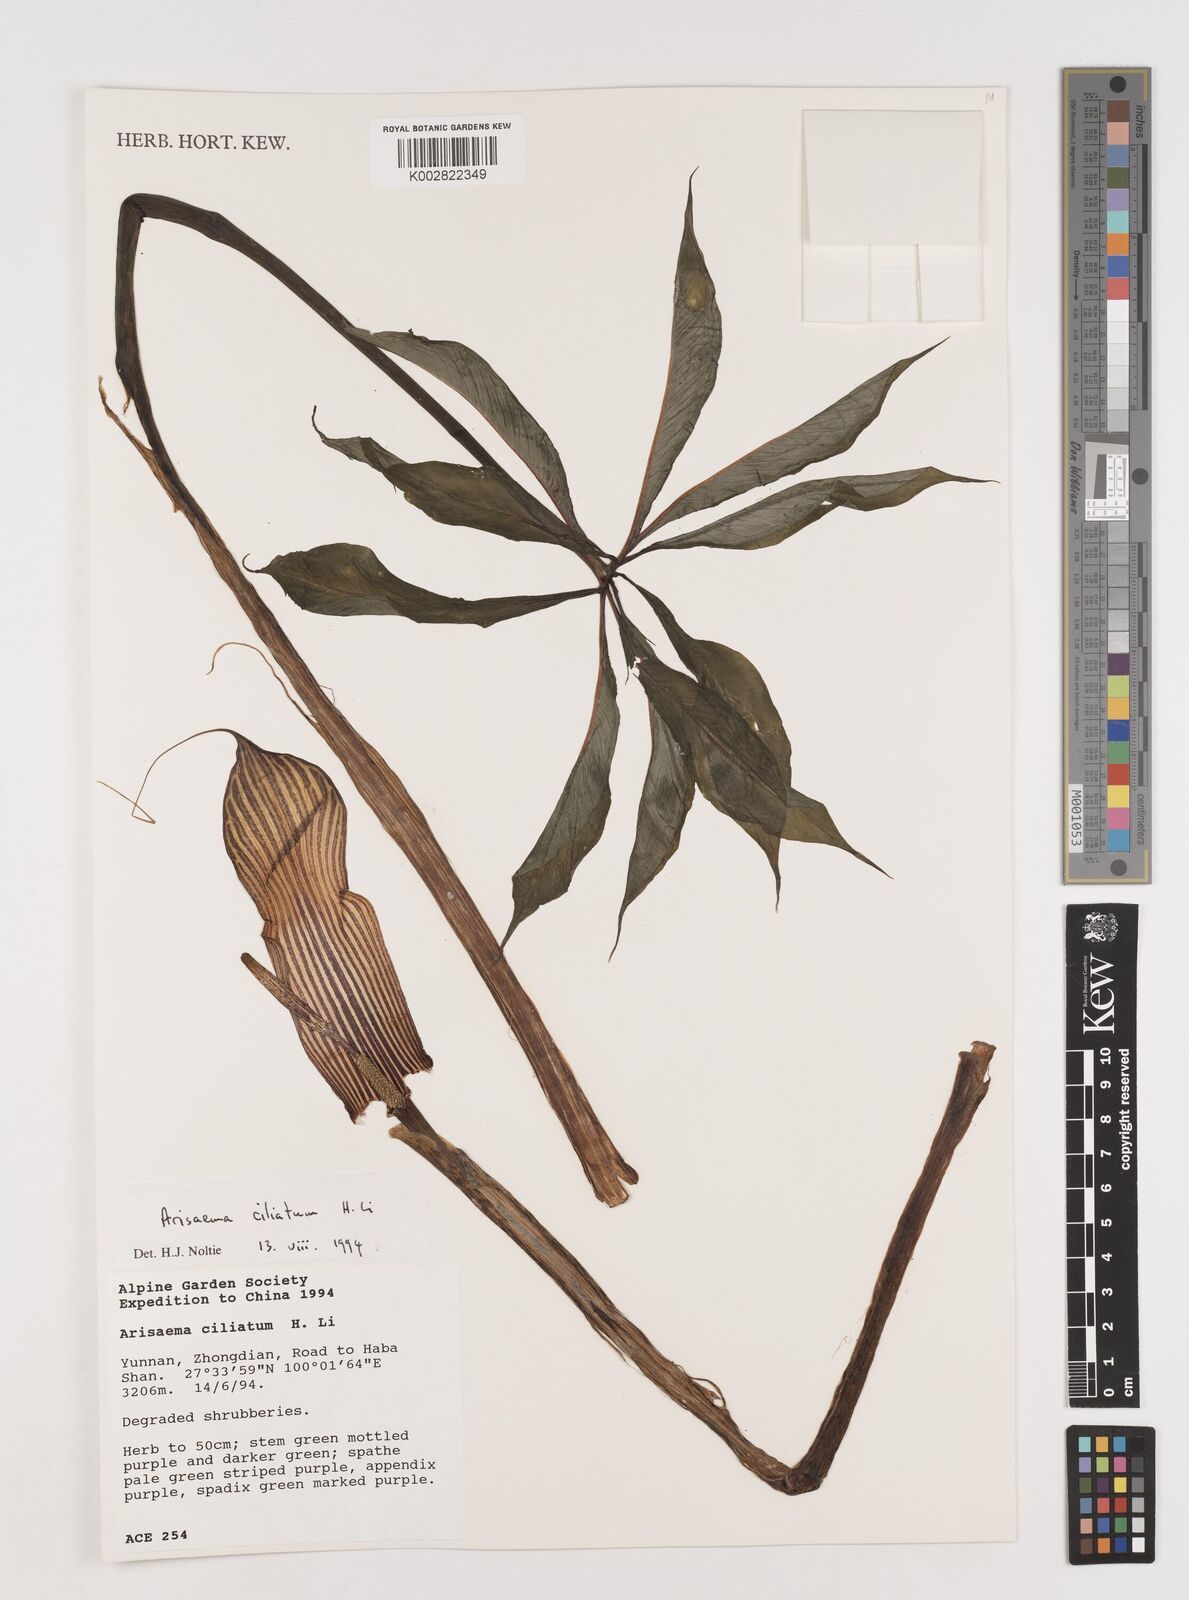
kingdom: Plantae
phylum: Tracheophyta
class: Liliopsida
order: Alismatales
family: Araceae
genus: Arisaema
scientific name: Arisaema ciliatum
